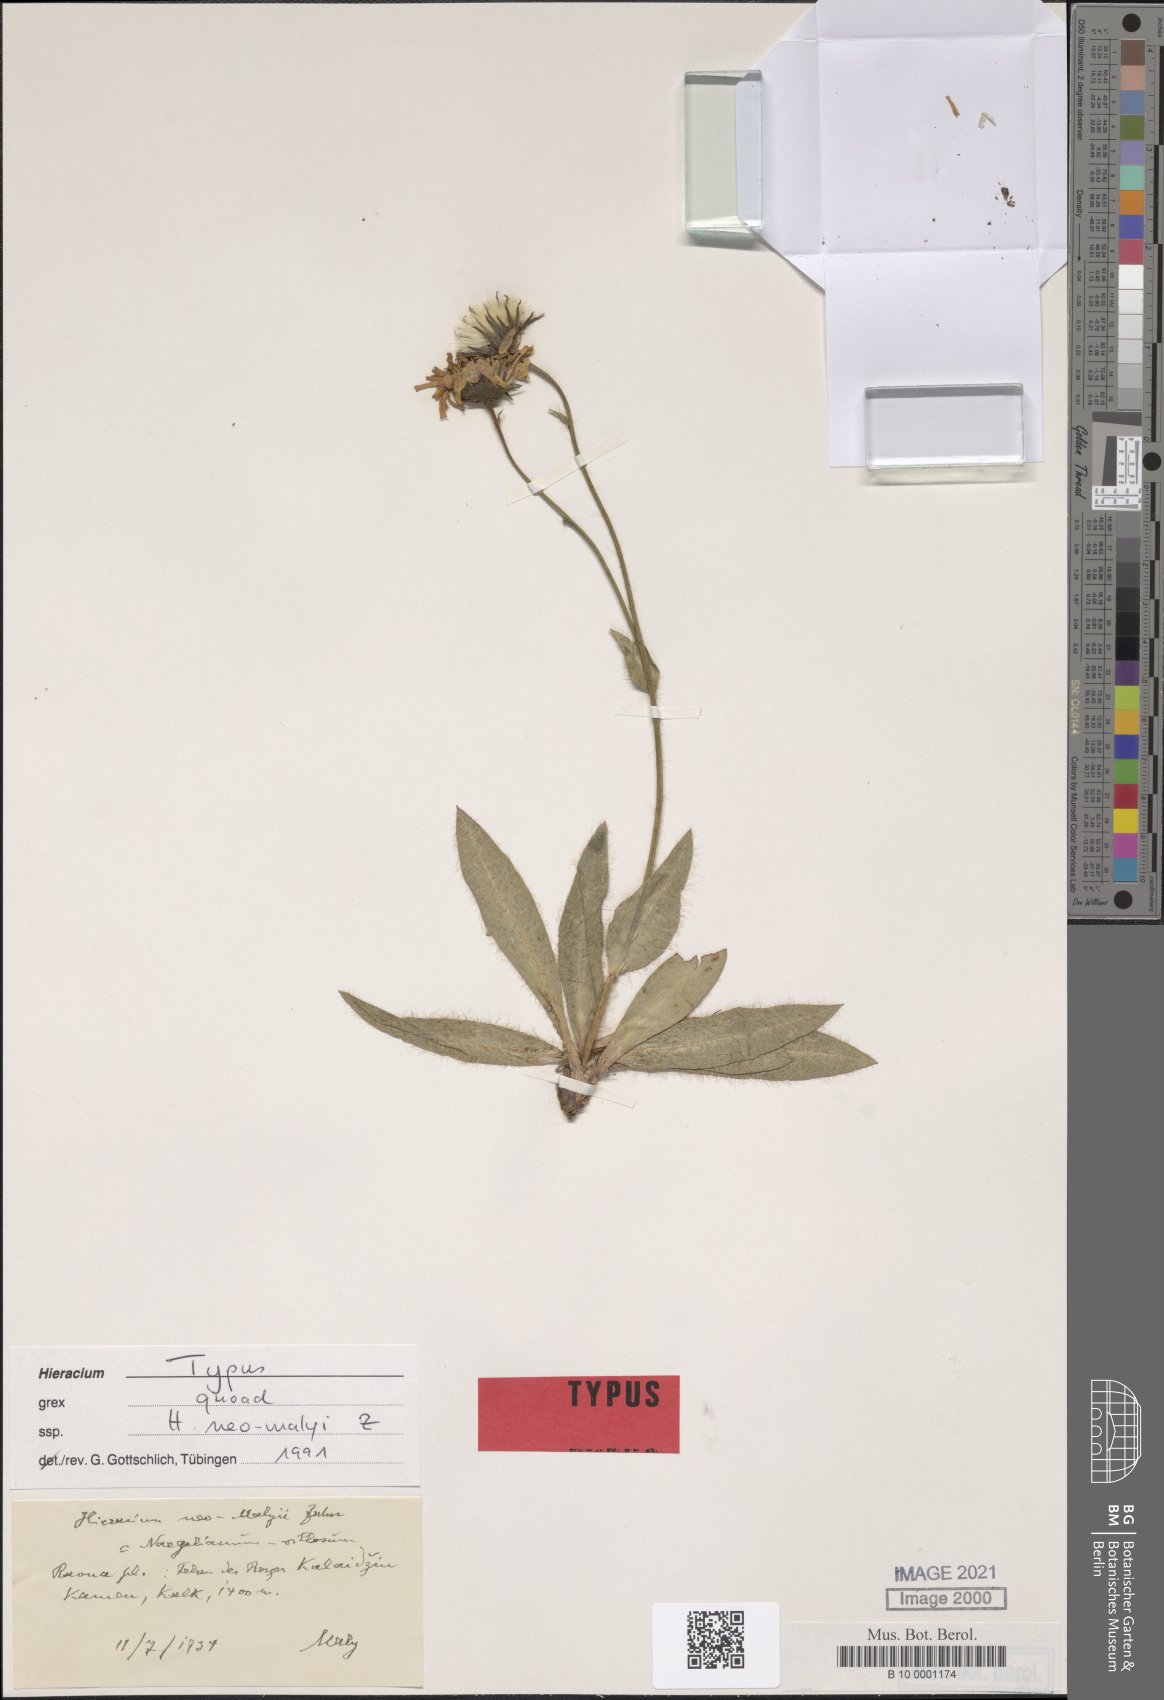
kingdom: Plantae
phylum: Tracheophyta
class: Magnoliopsida
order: Asterales
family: Asteraceae
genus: Hieracium
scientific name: Hieracium neomalyi
